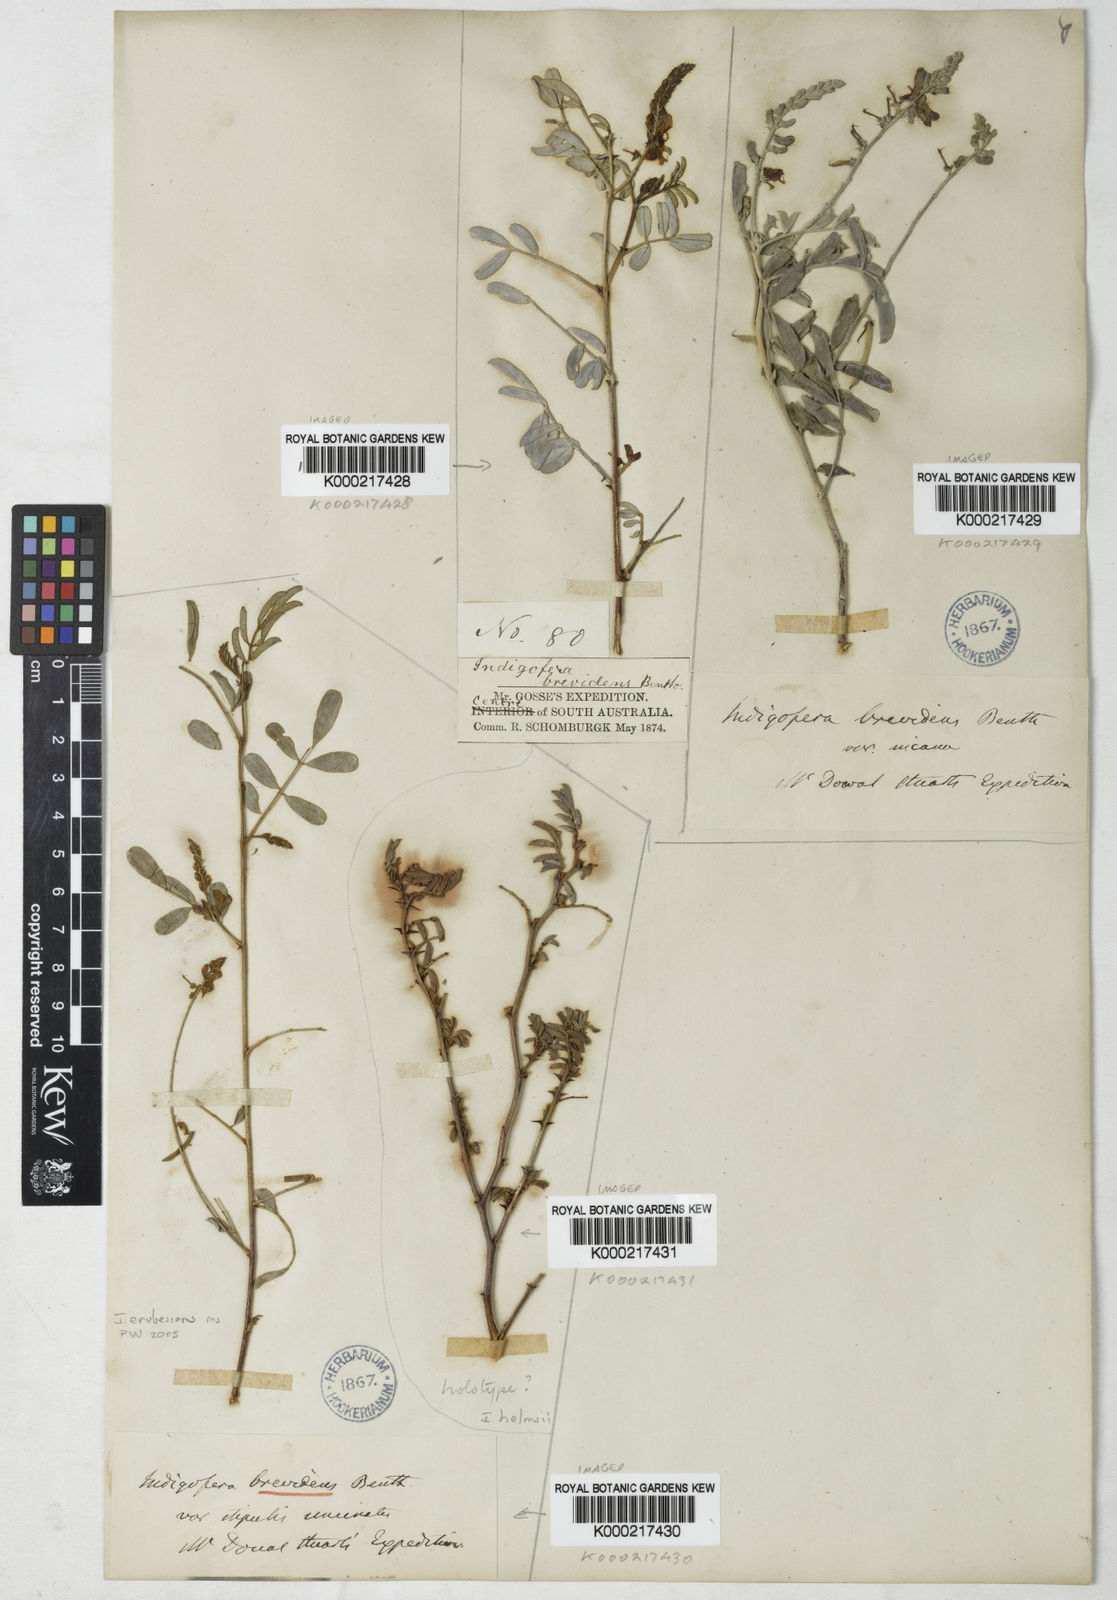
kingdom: Plantae
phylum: Tracheophyta
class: Magnoliopsida
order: Fabales
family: Fabaceae
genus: Indigofera
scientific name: Indigofera brevidens
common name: Desert indigo
